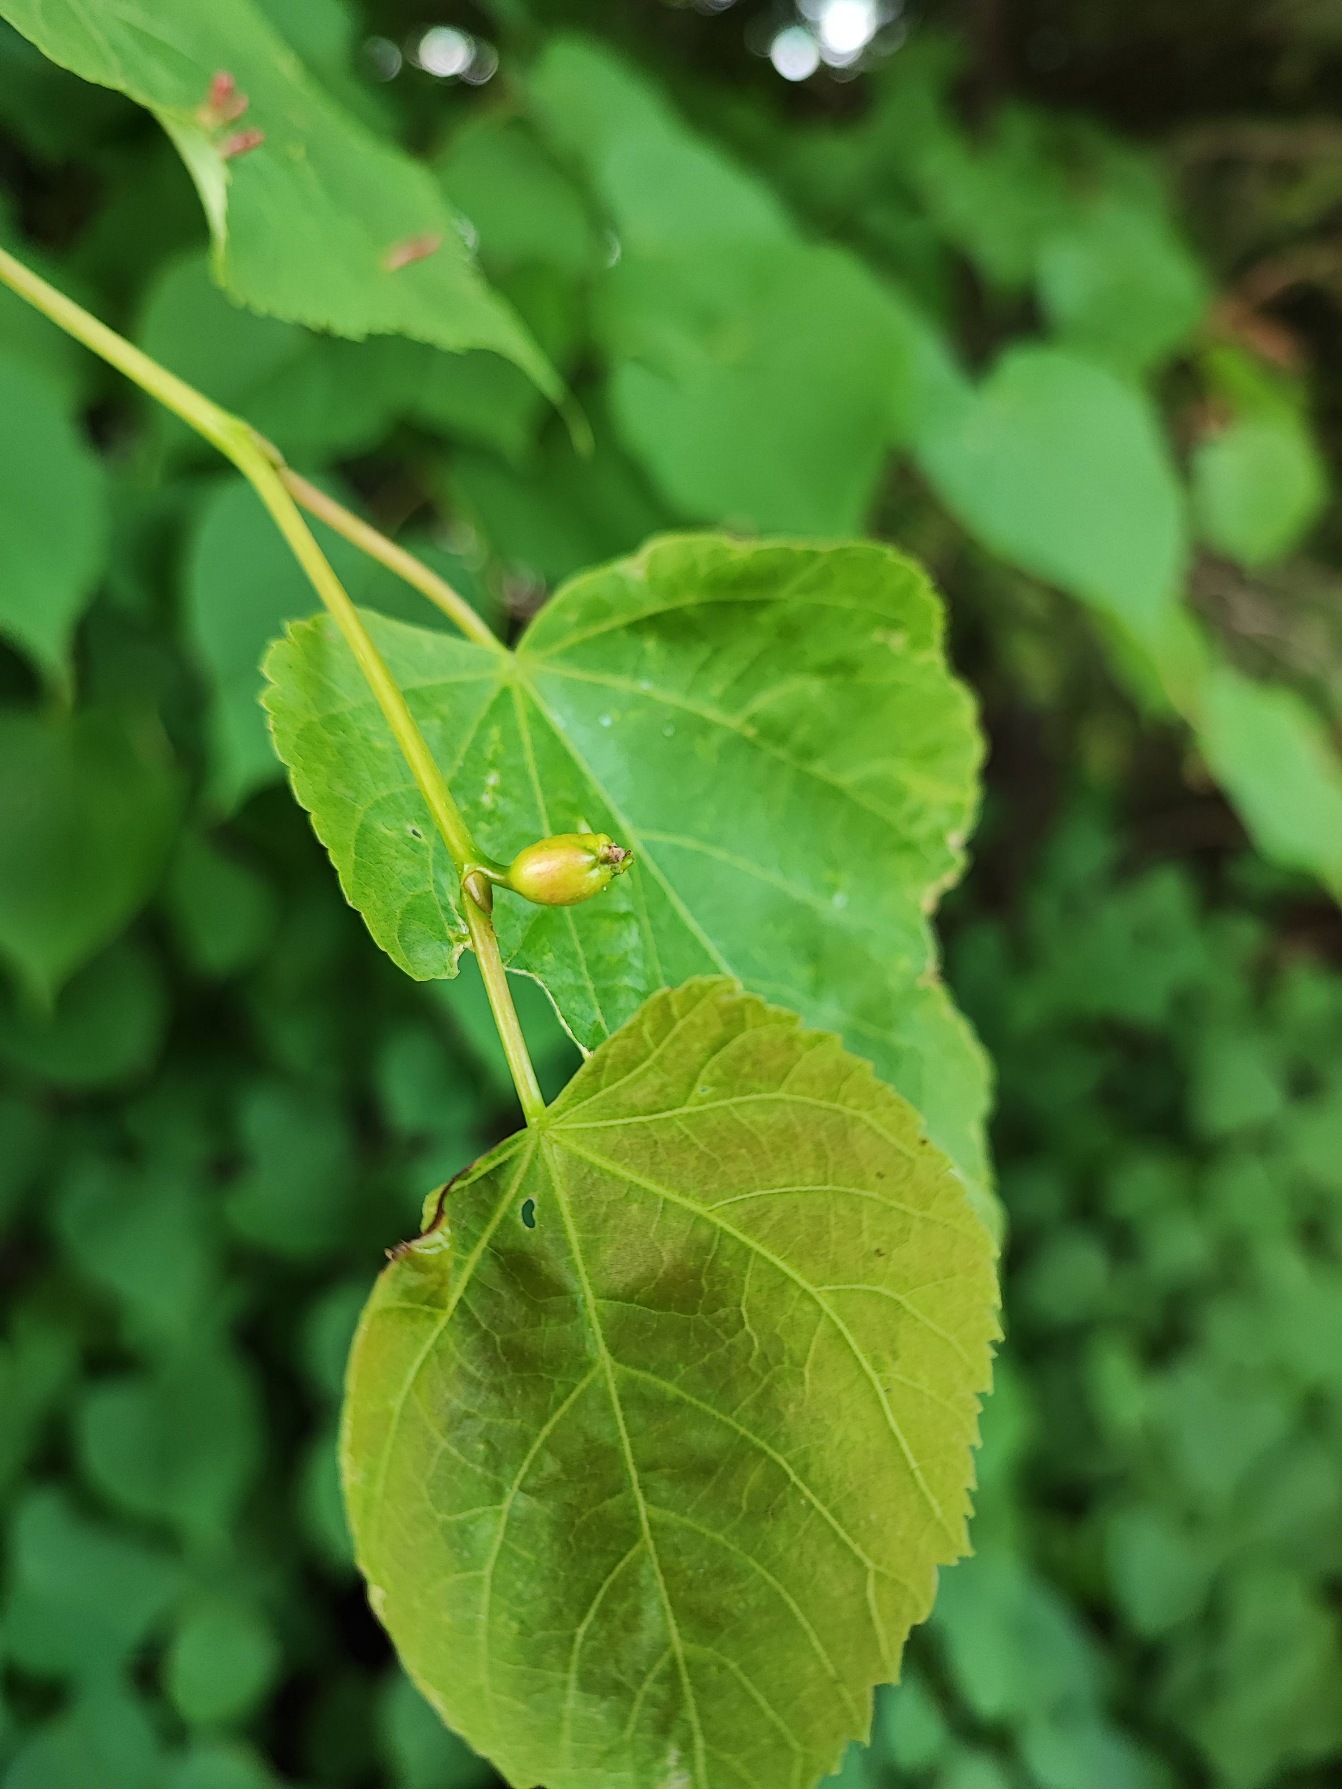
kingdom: Animalia
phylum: Arthropoda
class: Insecta
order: Diptera
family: Cecidomyiidae
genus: Contarinia
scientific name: Contarinia tiliarum
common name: Springende lindegalmyg
